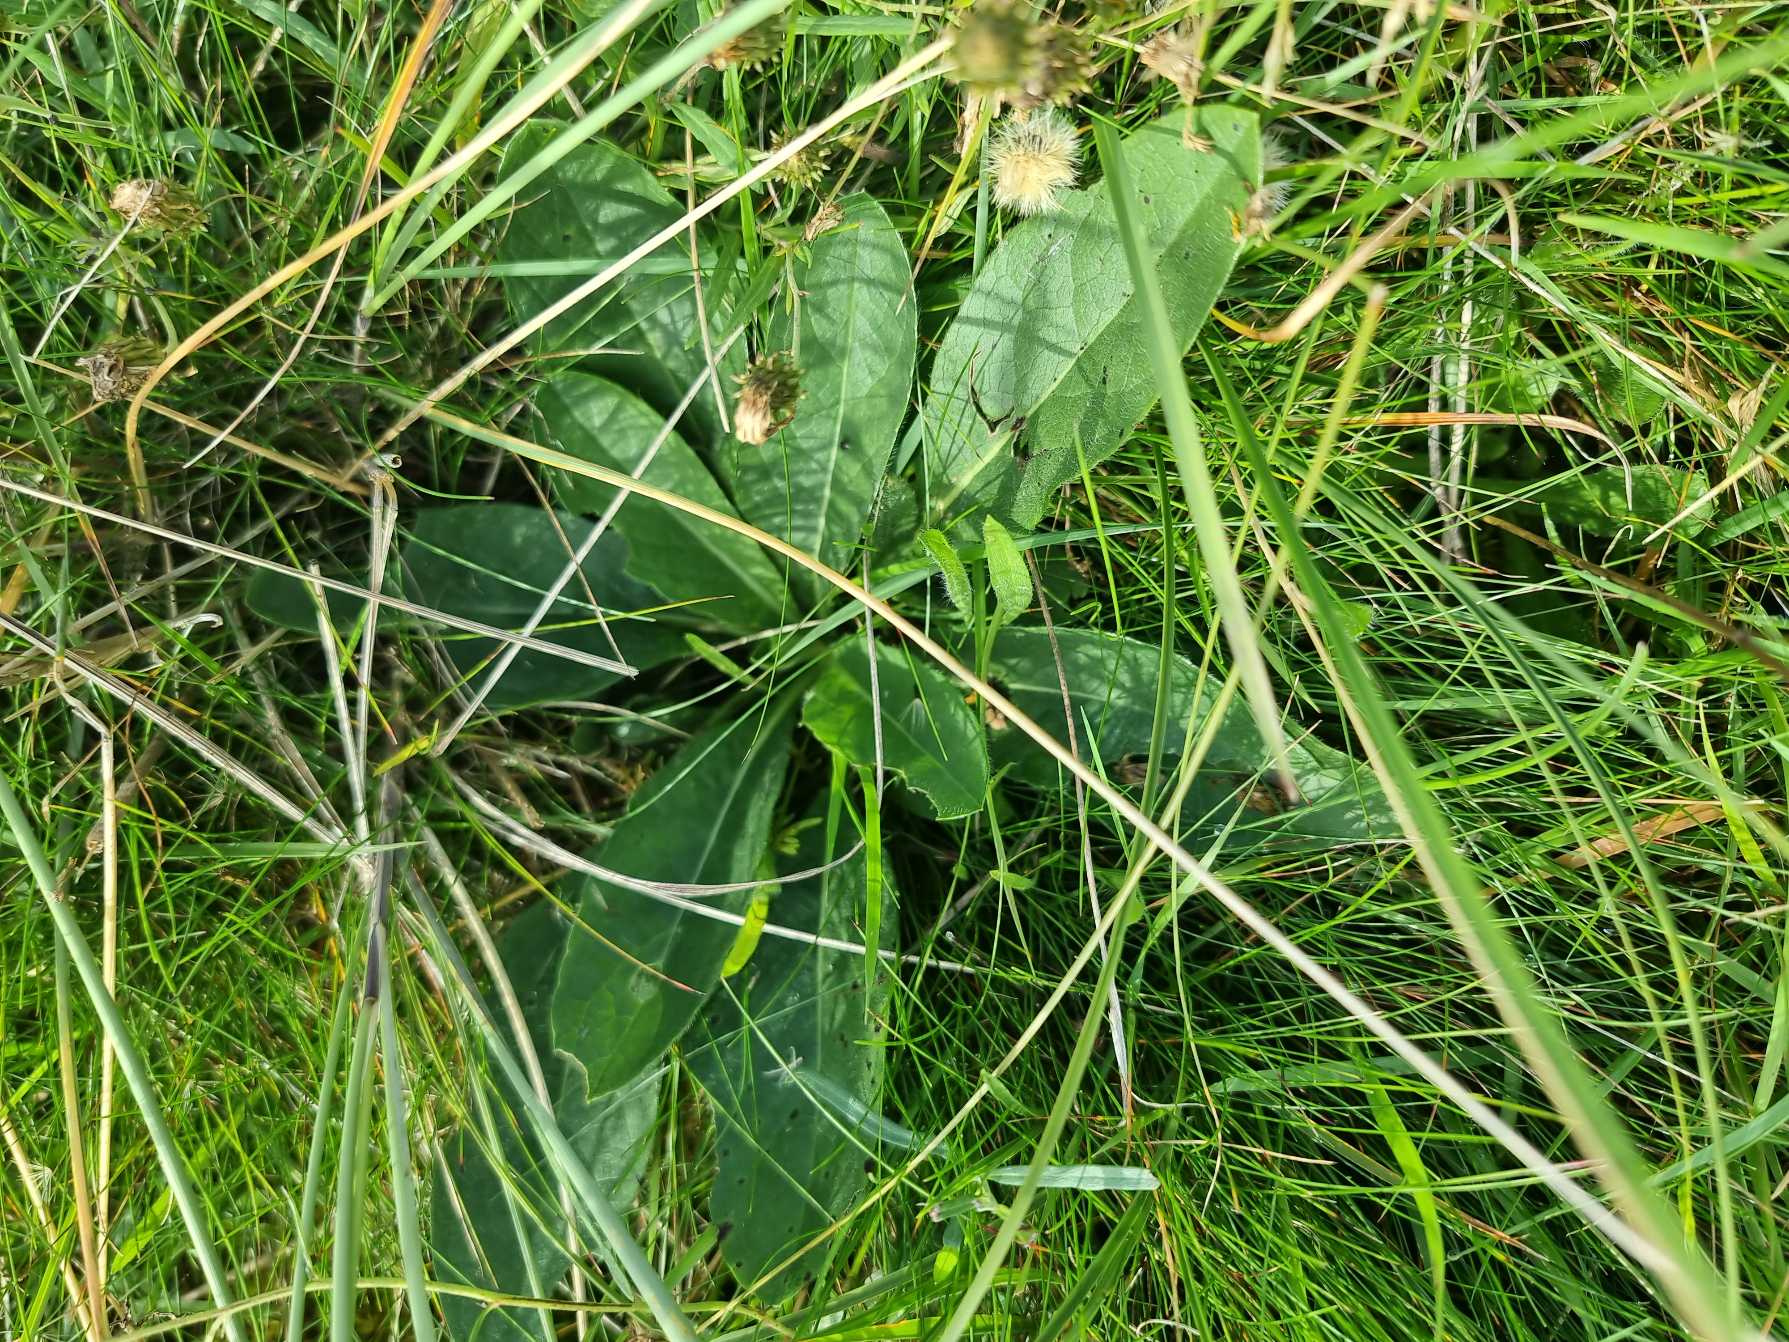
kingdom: Plantae
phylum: Tracheophyta
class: Magnoliopsida
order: Dipsacales
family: Caprifoliaceae
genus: Succisa
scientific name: Succisa pratensis
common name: Djævelsbid
